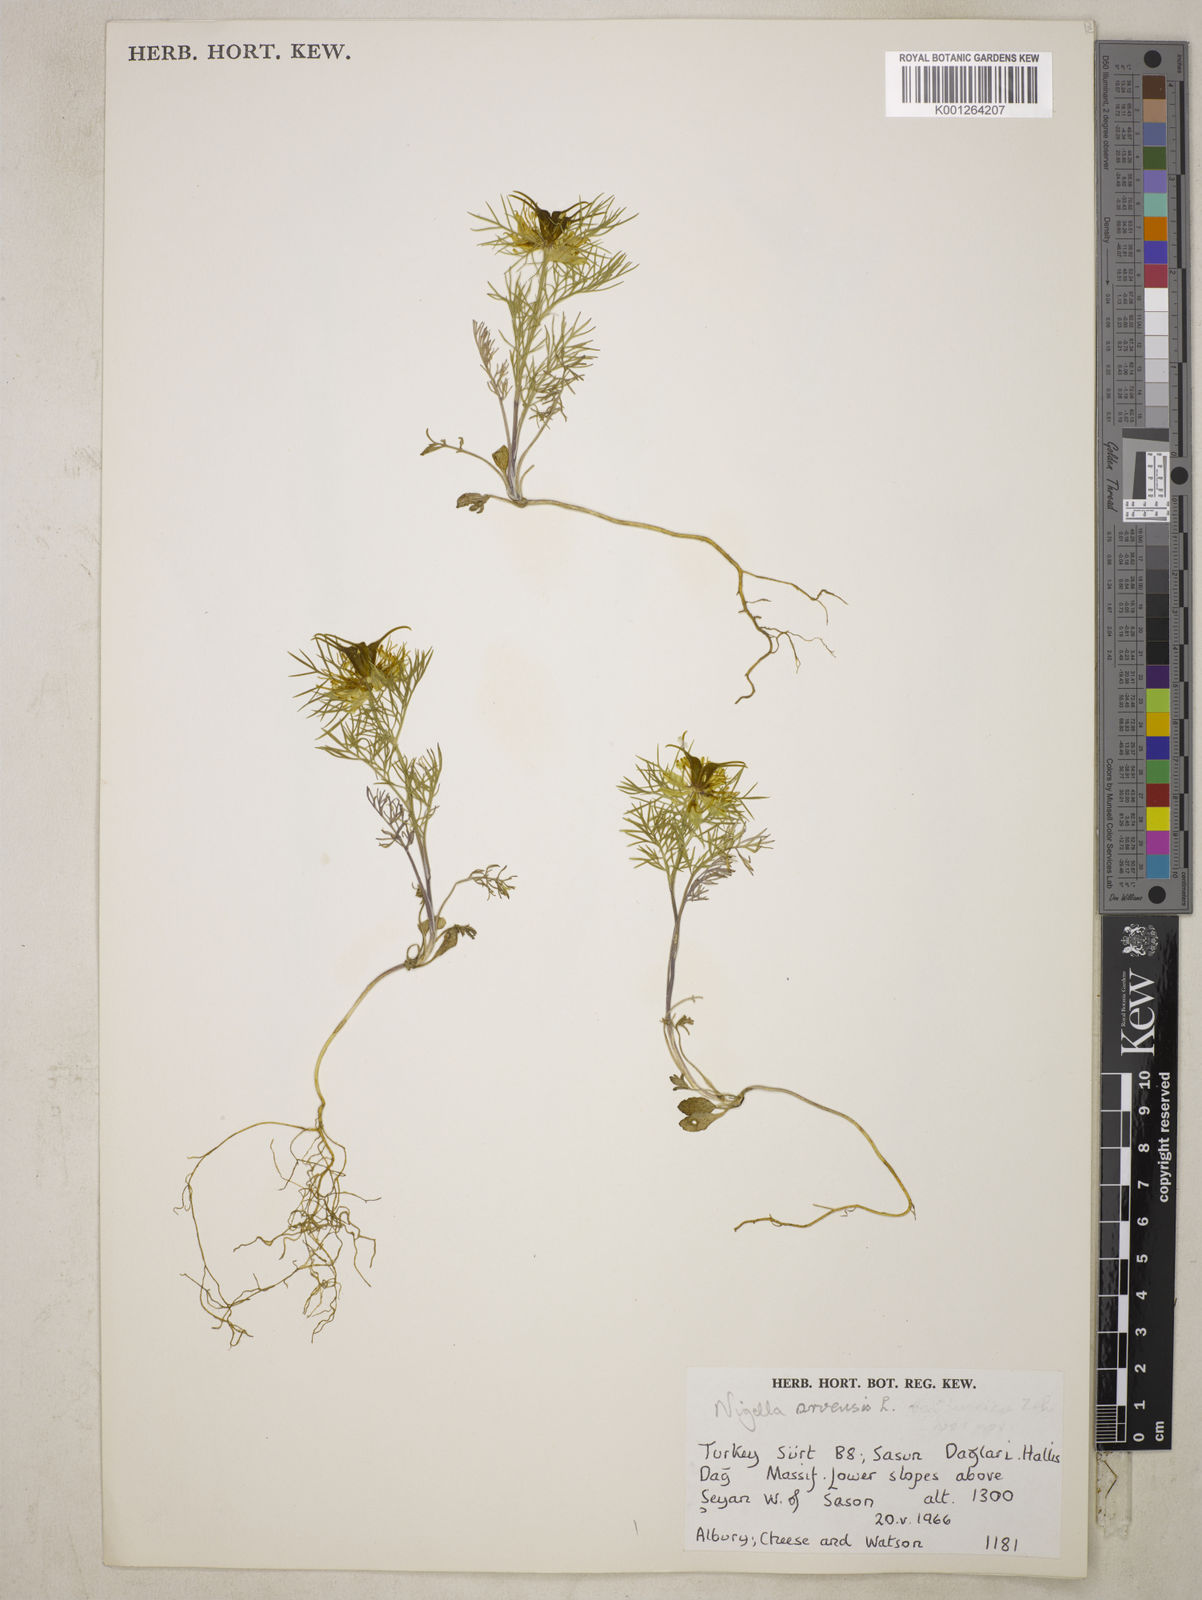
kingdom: Plantae
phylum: Tracheophyta
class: Magnoliopsida
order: Ranunculales
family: Ranunculaceae
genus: Nigella
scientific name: Nigella oxypetala
